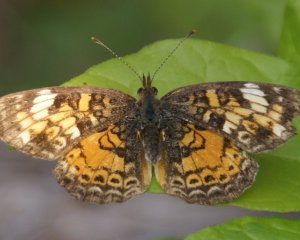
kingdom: Animalia
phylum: Arthropoda
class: Insecta
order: Lepidoptera
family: Nymphalidae
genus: Phyciodes
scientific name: Phyciodes tharos
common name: Northern Crescent
